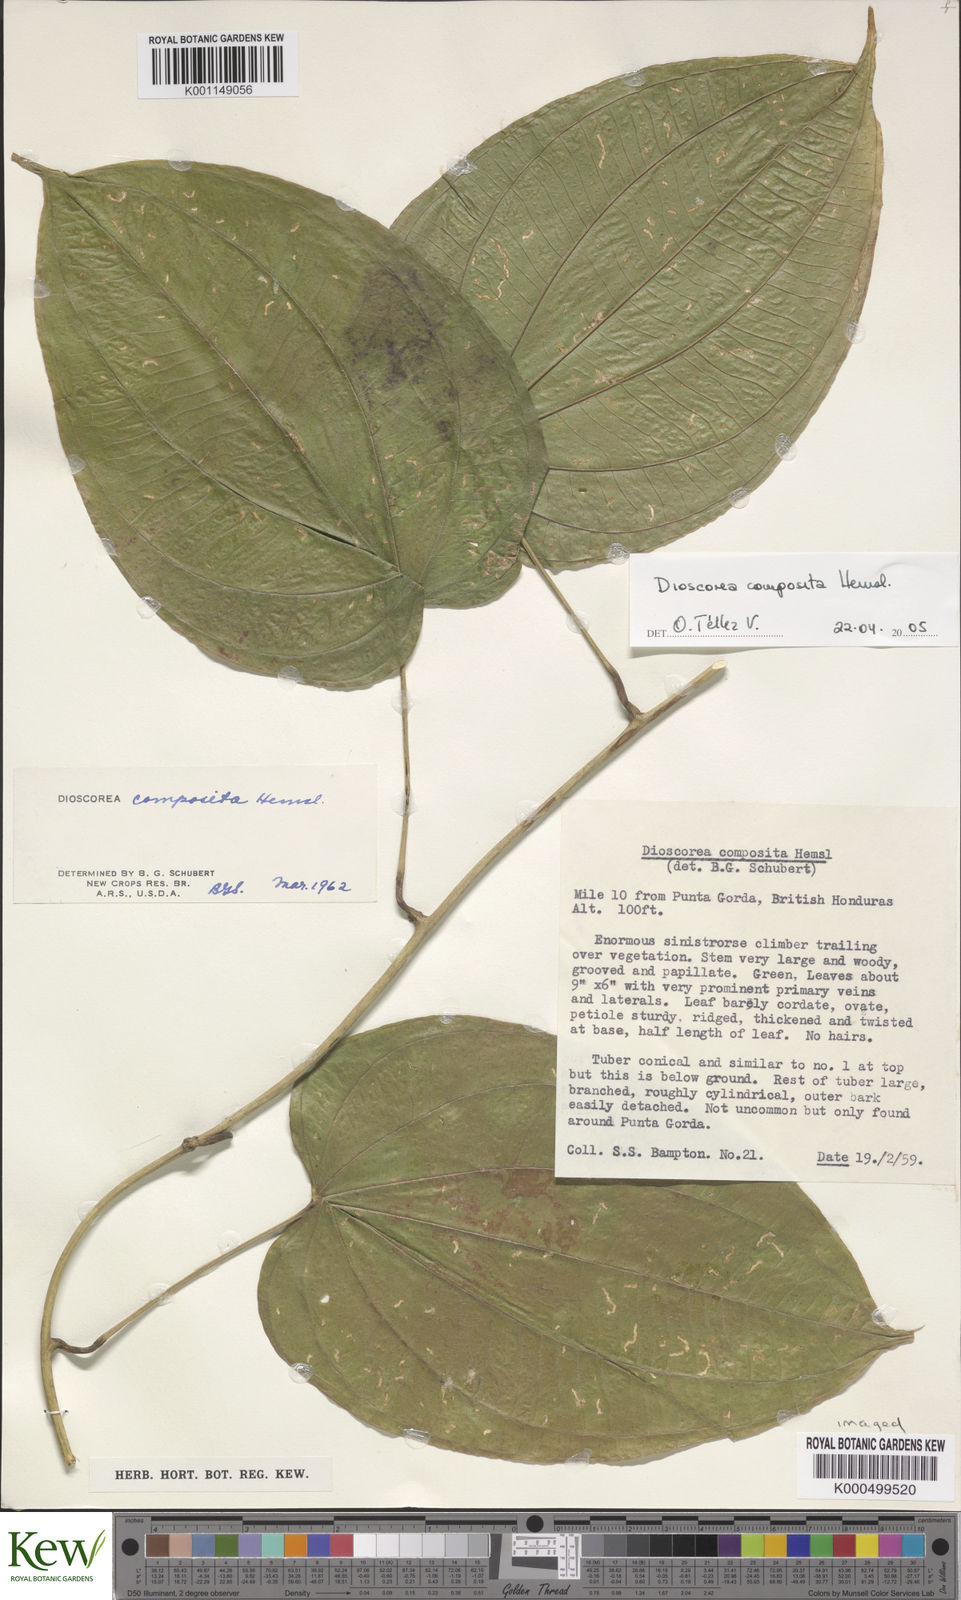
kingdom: Plantae
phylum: Tracheophyta
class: Liliopsida
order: Dioscoreales
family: Dioscoreaceae
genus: Dioscorea
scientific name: Dioscorea composita
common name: Barbasco
